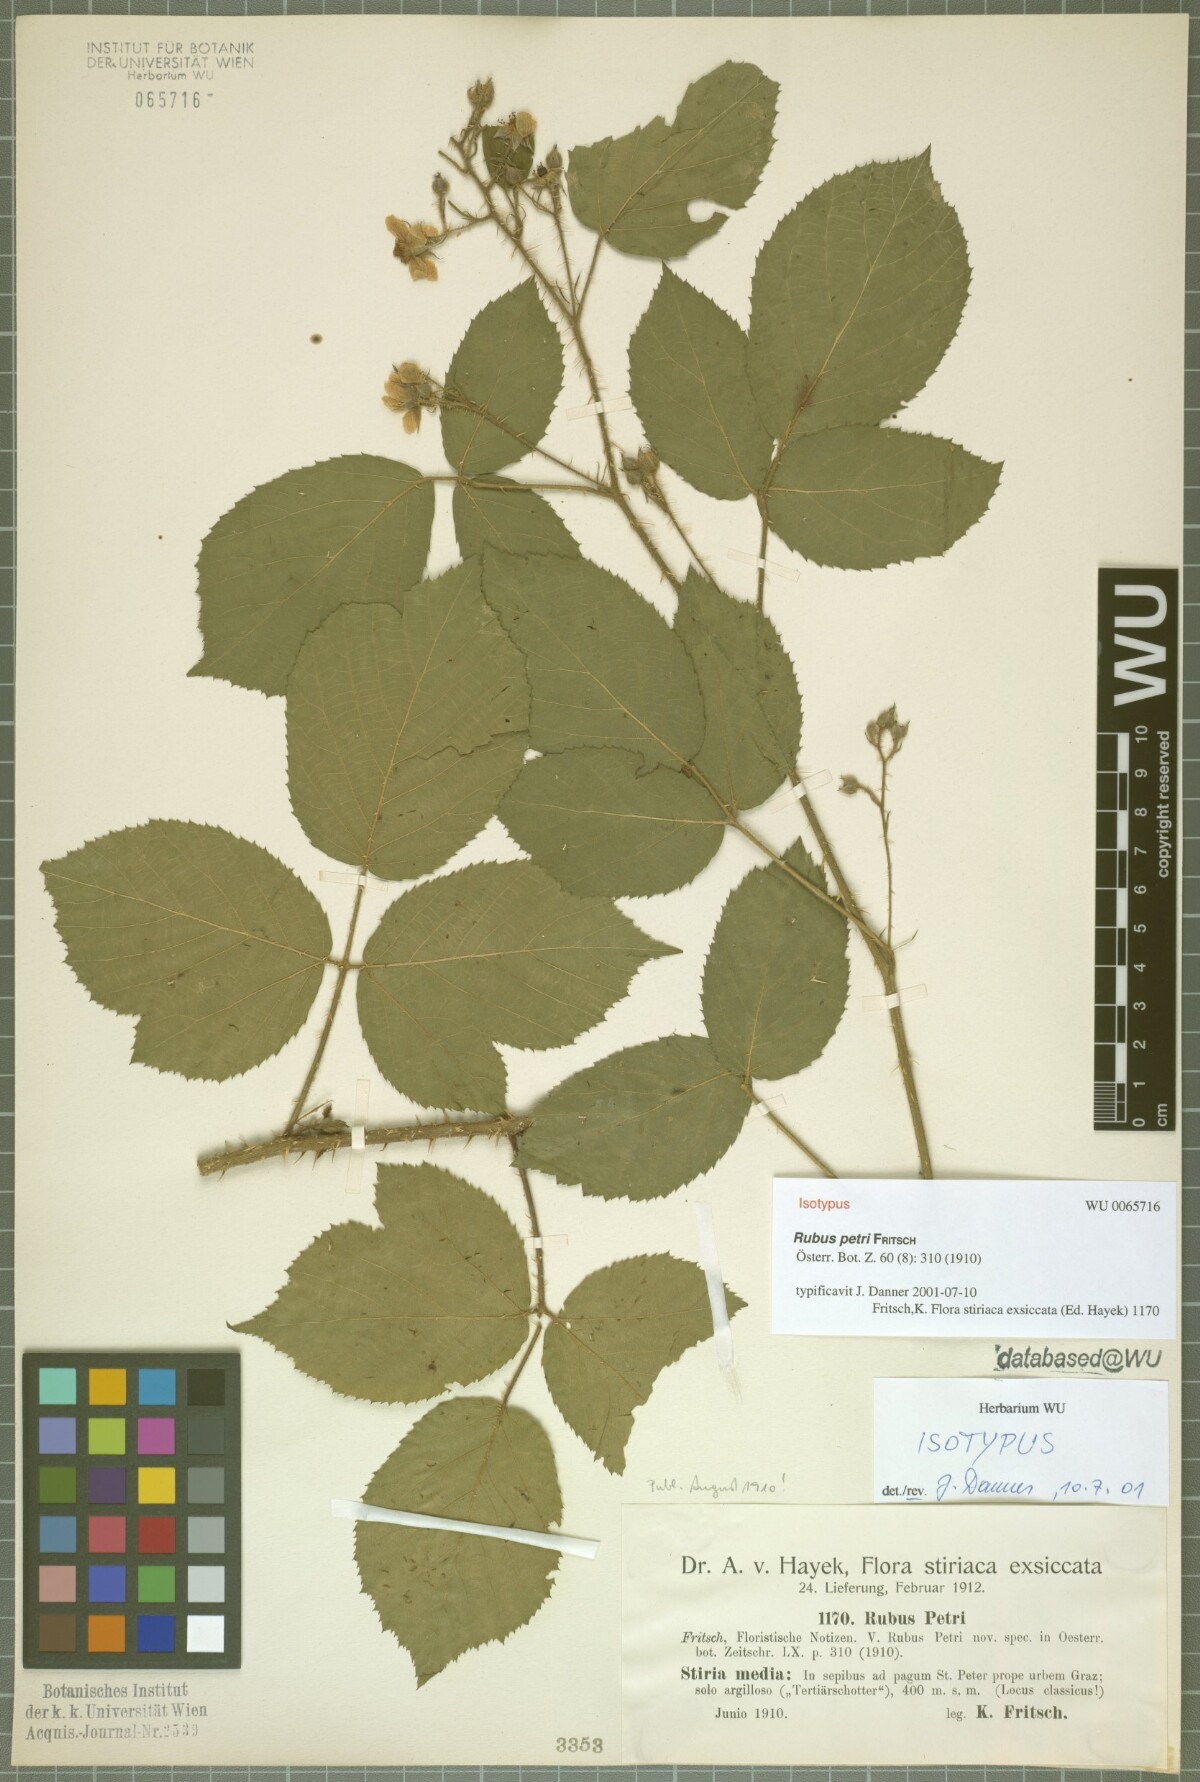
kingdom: Plantae
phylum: Tracheophyta
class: Magnoliopsida
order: Rosales
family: Rosaceae
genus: Rubus
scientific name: Rubus petri
